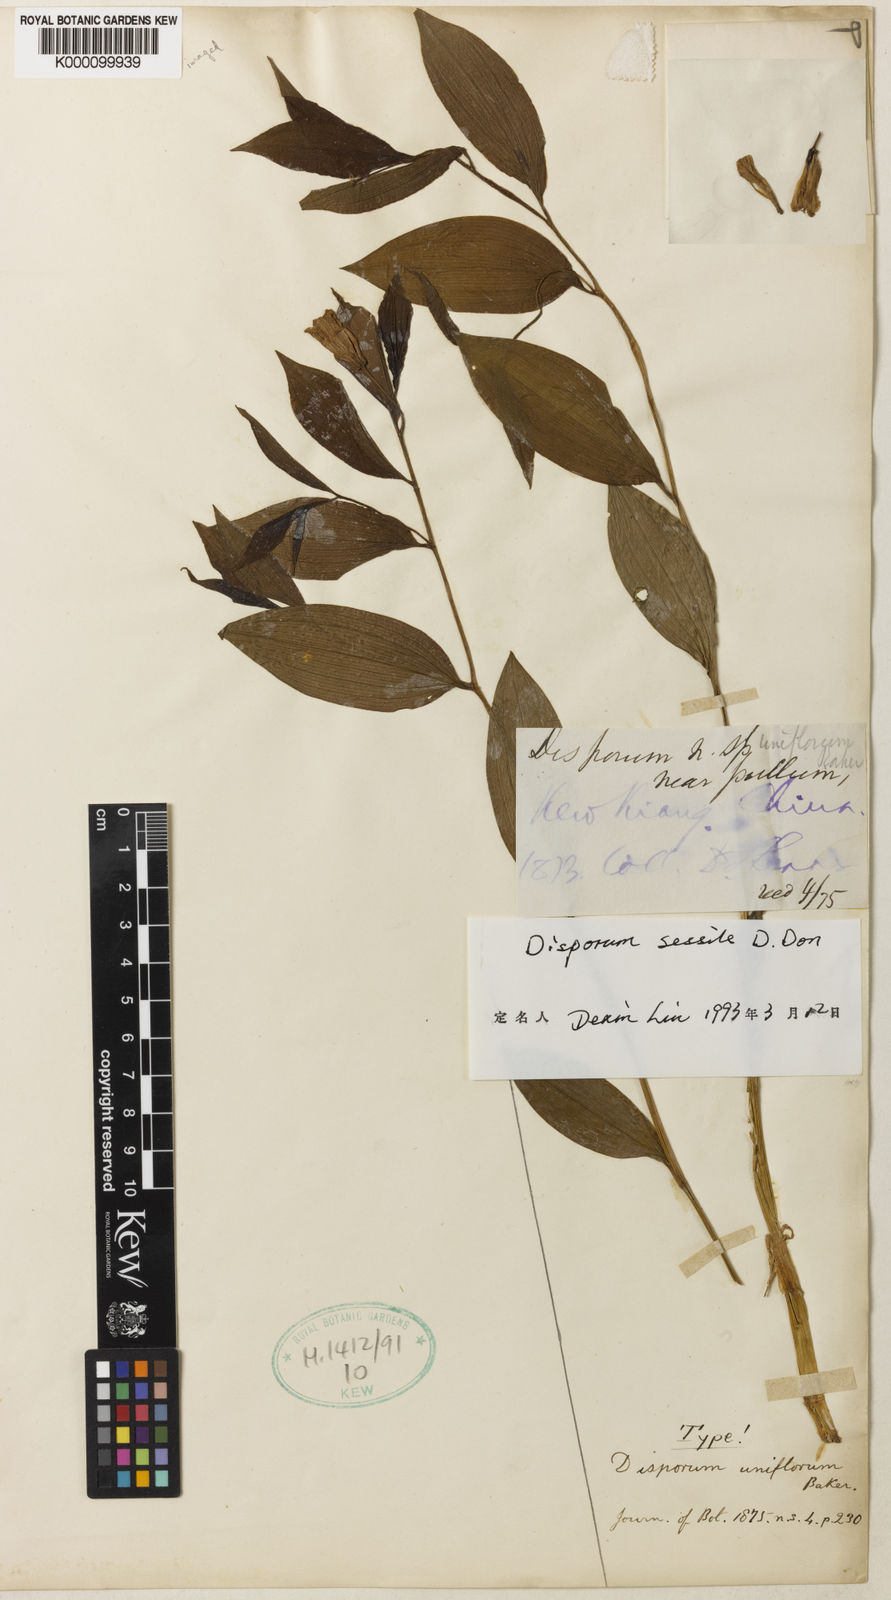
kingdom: Plantae
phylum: Tracheophyta
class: Liliopsida
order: Liliales
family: Colchicaceae
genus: Disporum
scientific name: Disporum
